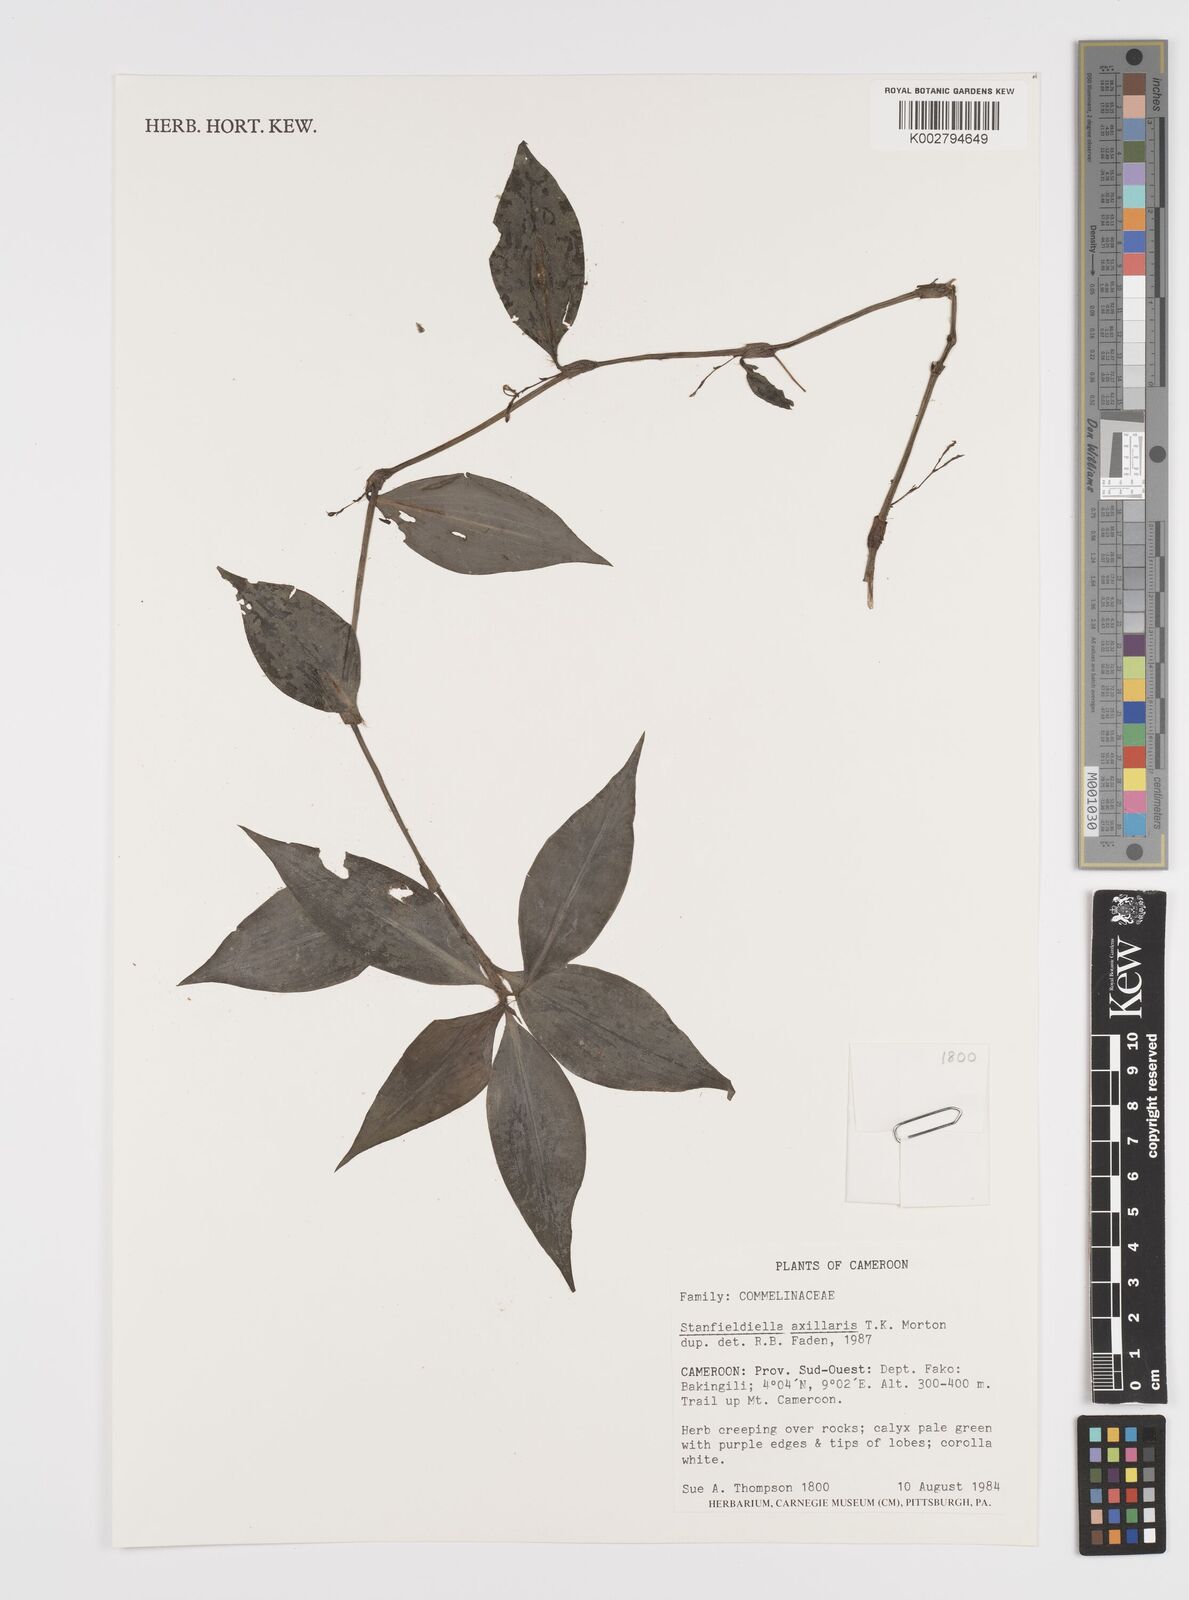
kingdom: Plantae
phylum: Tracheophyta
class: Liliopsida
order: Commelinales
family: Commelinaceae
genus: Stanfieldiella
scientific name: Stanfieldiella axillaris
